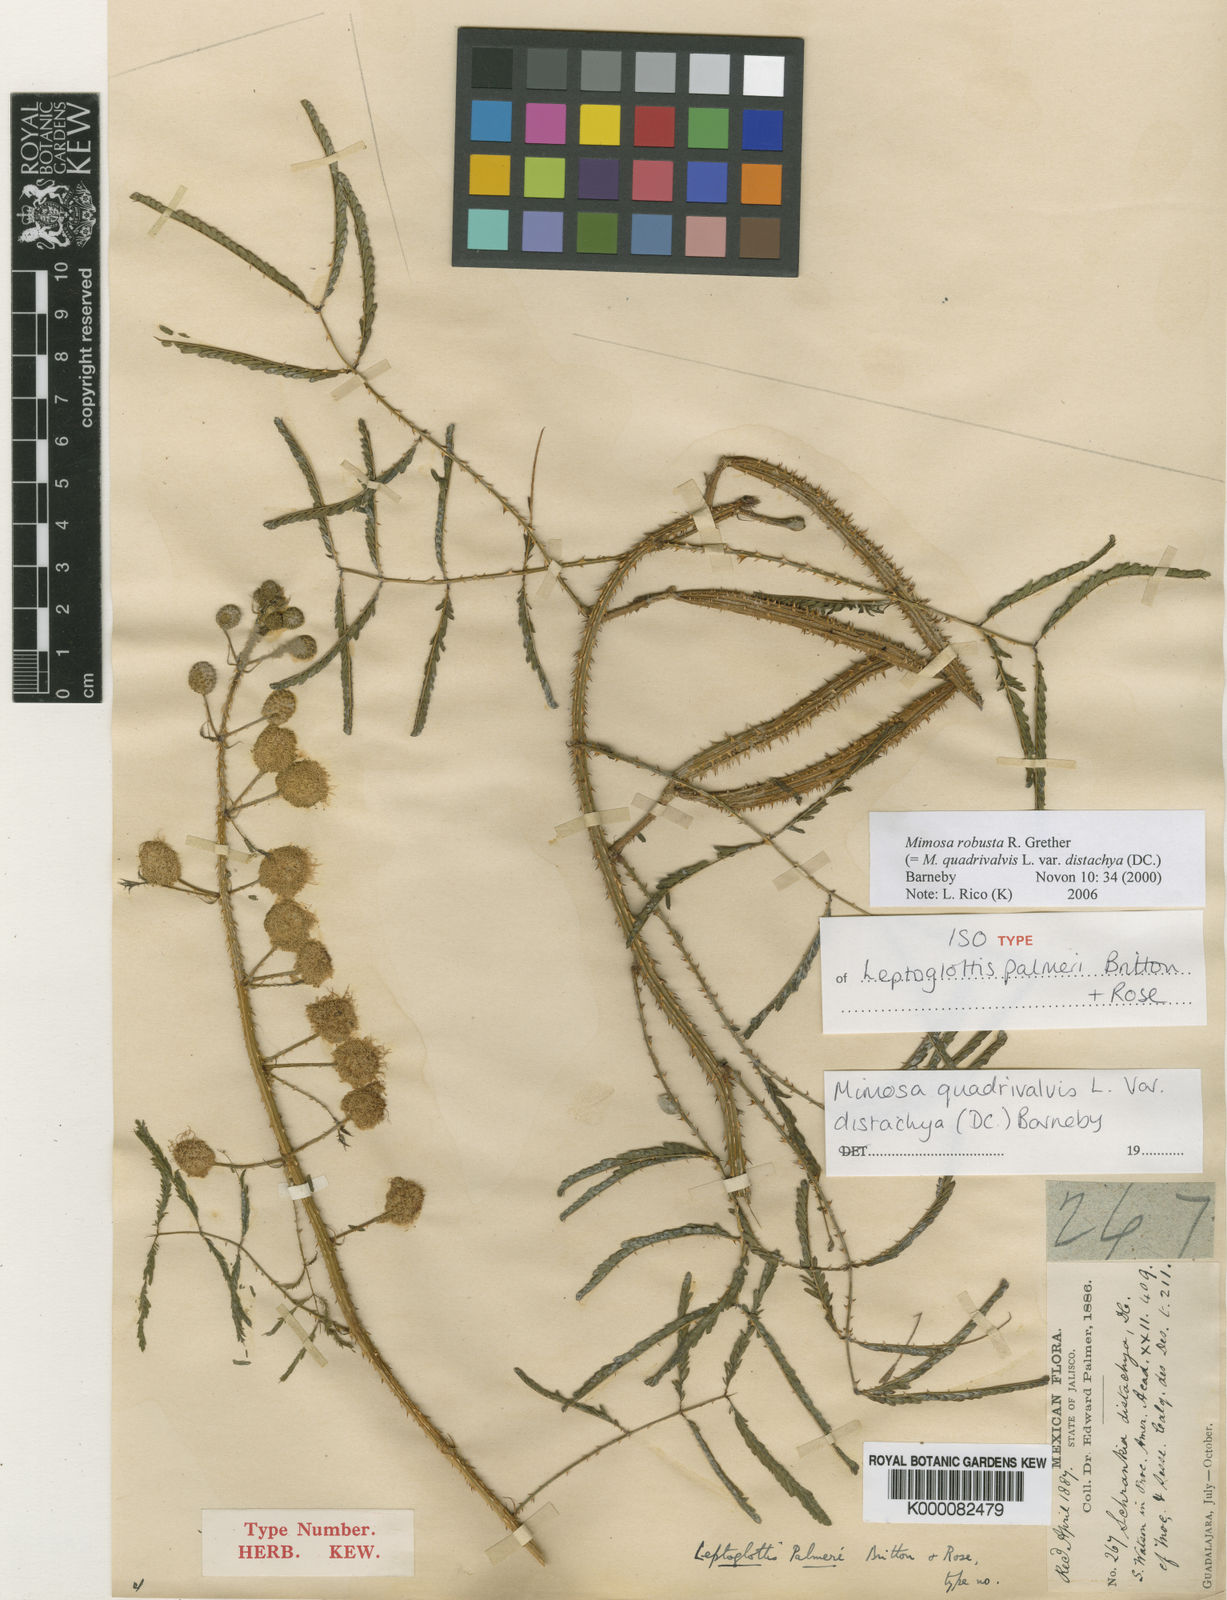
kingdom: Plantae
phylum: Tracheophyta
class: Magnoliopsida
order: Fabales
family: Fabaceae
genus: Mimosa
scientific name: Mimosa robusta
